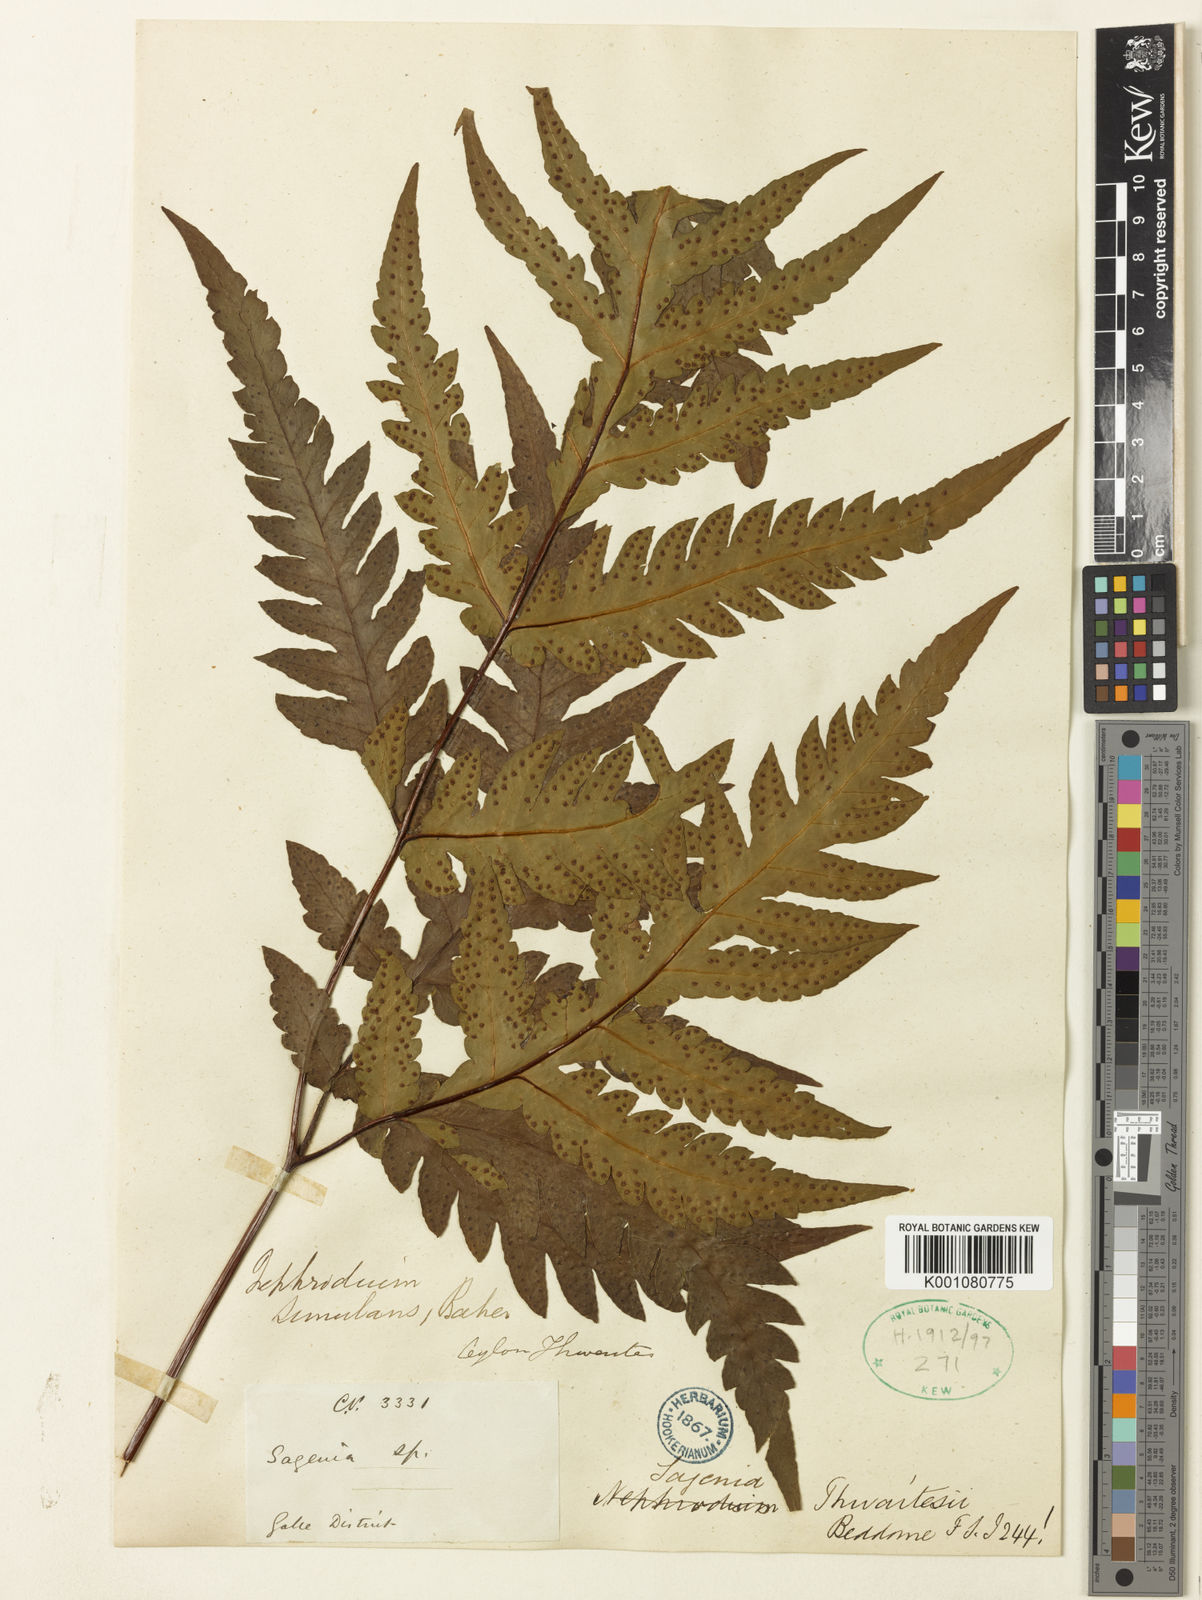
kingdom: Plantae
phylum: Tracheophyta
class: Polypodiopsida
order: Polypodiales
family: Tectariaceae
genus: Tectaria
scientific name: Tectaria thwaitesii
